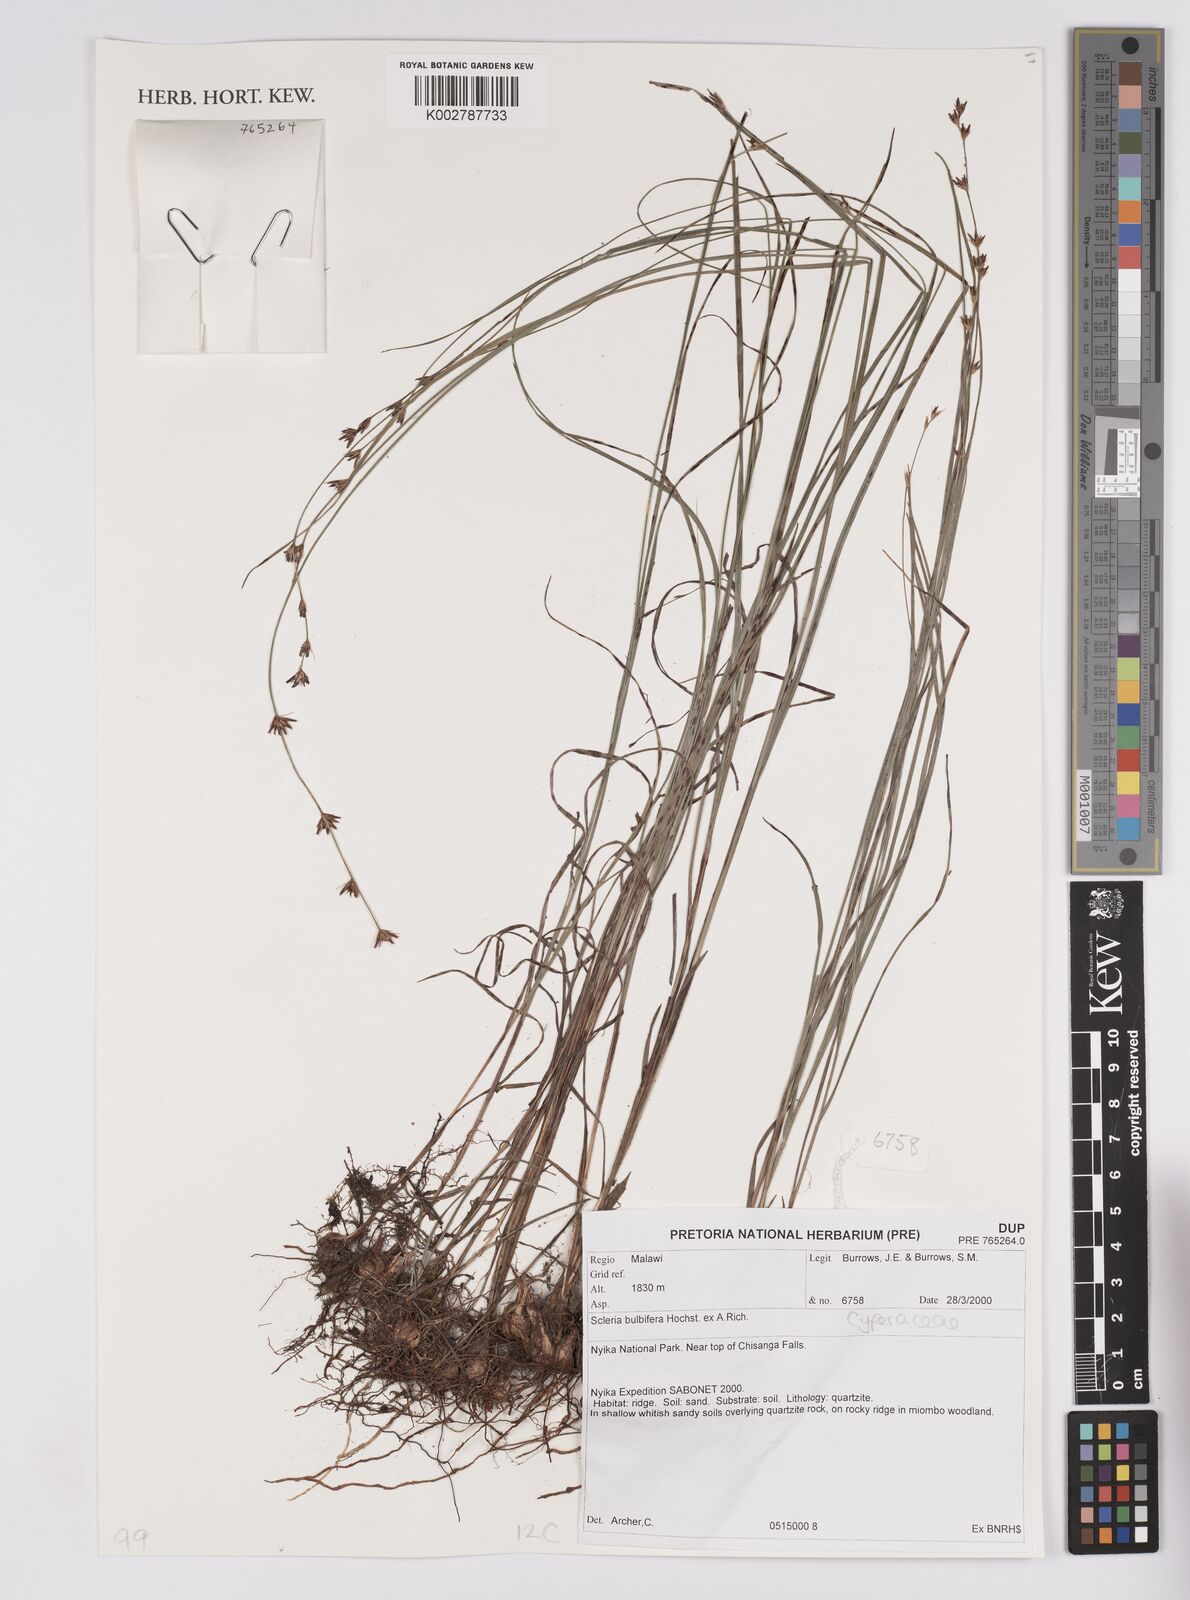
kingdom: Plantae
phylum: Tracheophyta
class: Liliopsida
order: Poales
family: Cyperaceae
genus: Scleria
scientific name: Scleria bulbifera
